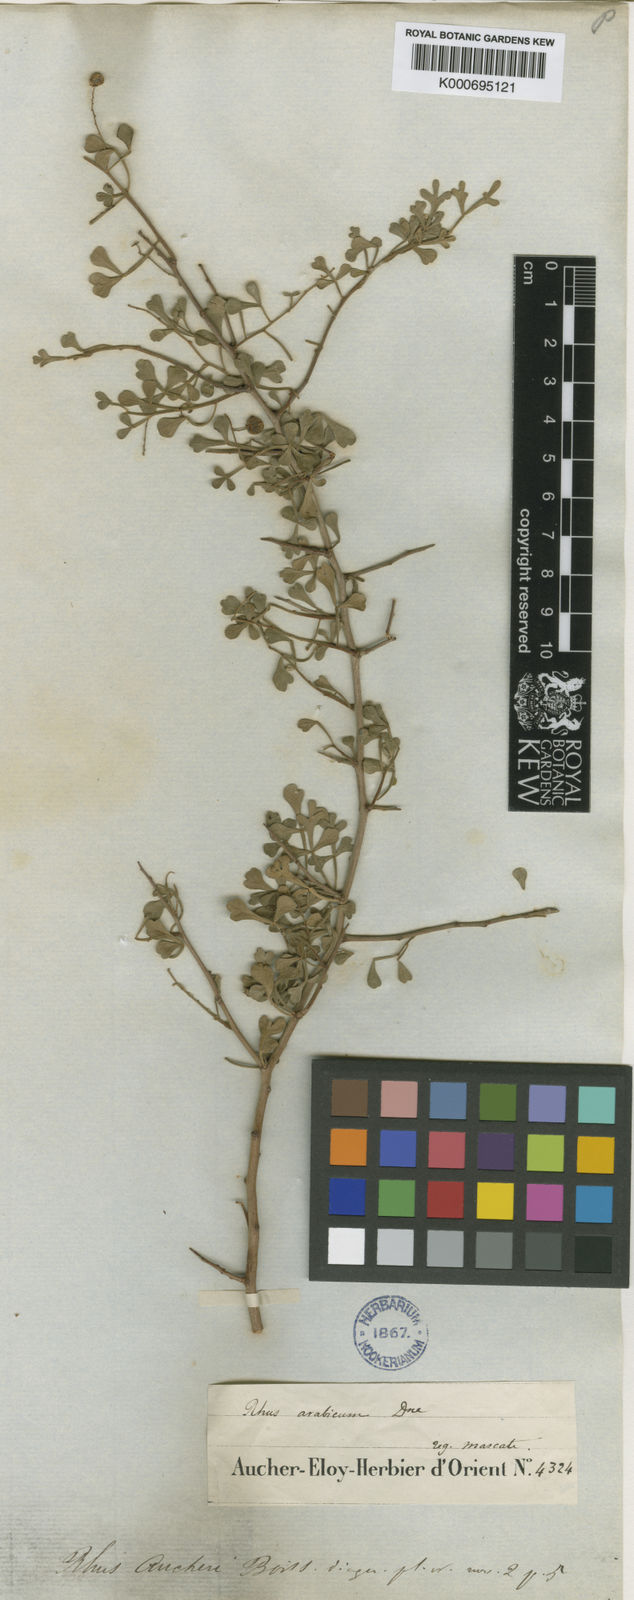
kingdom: Plantae
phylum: Tracheophyta
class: Magnoliopsida
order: Sapindales
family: Anacardiaceae
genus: Searsia
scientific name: Searsia aucheri
